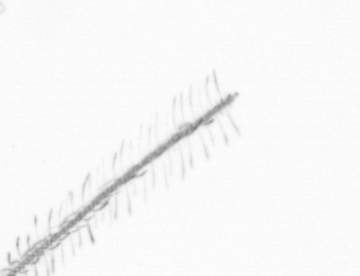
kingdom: Chromista
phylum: Ochrophyta
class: Bacillariophyceae
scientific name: Bacillariophyceae
